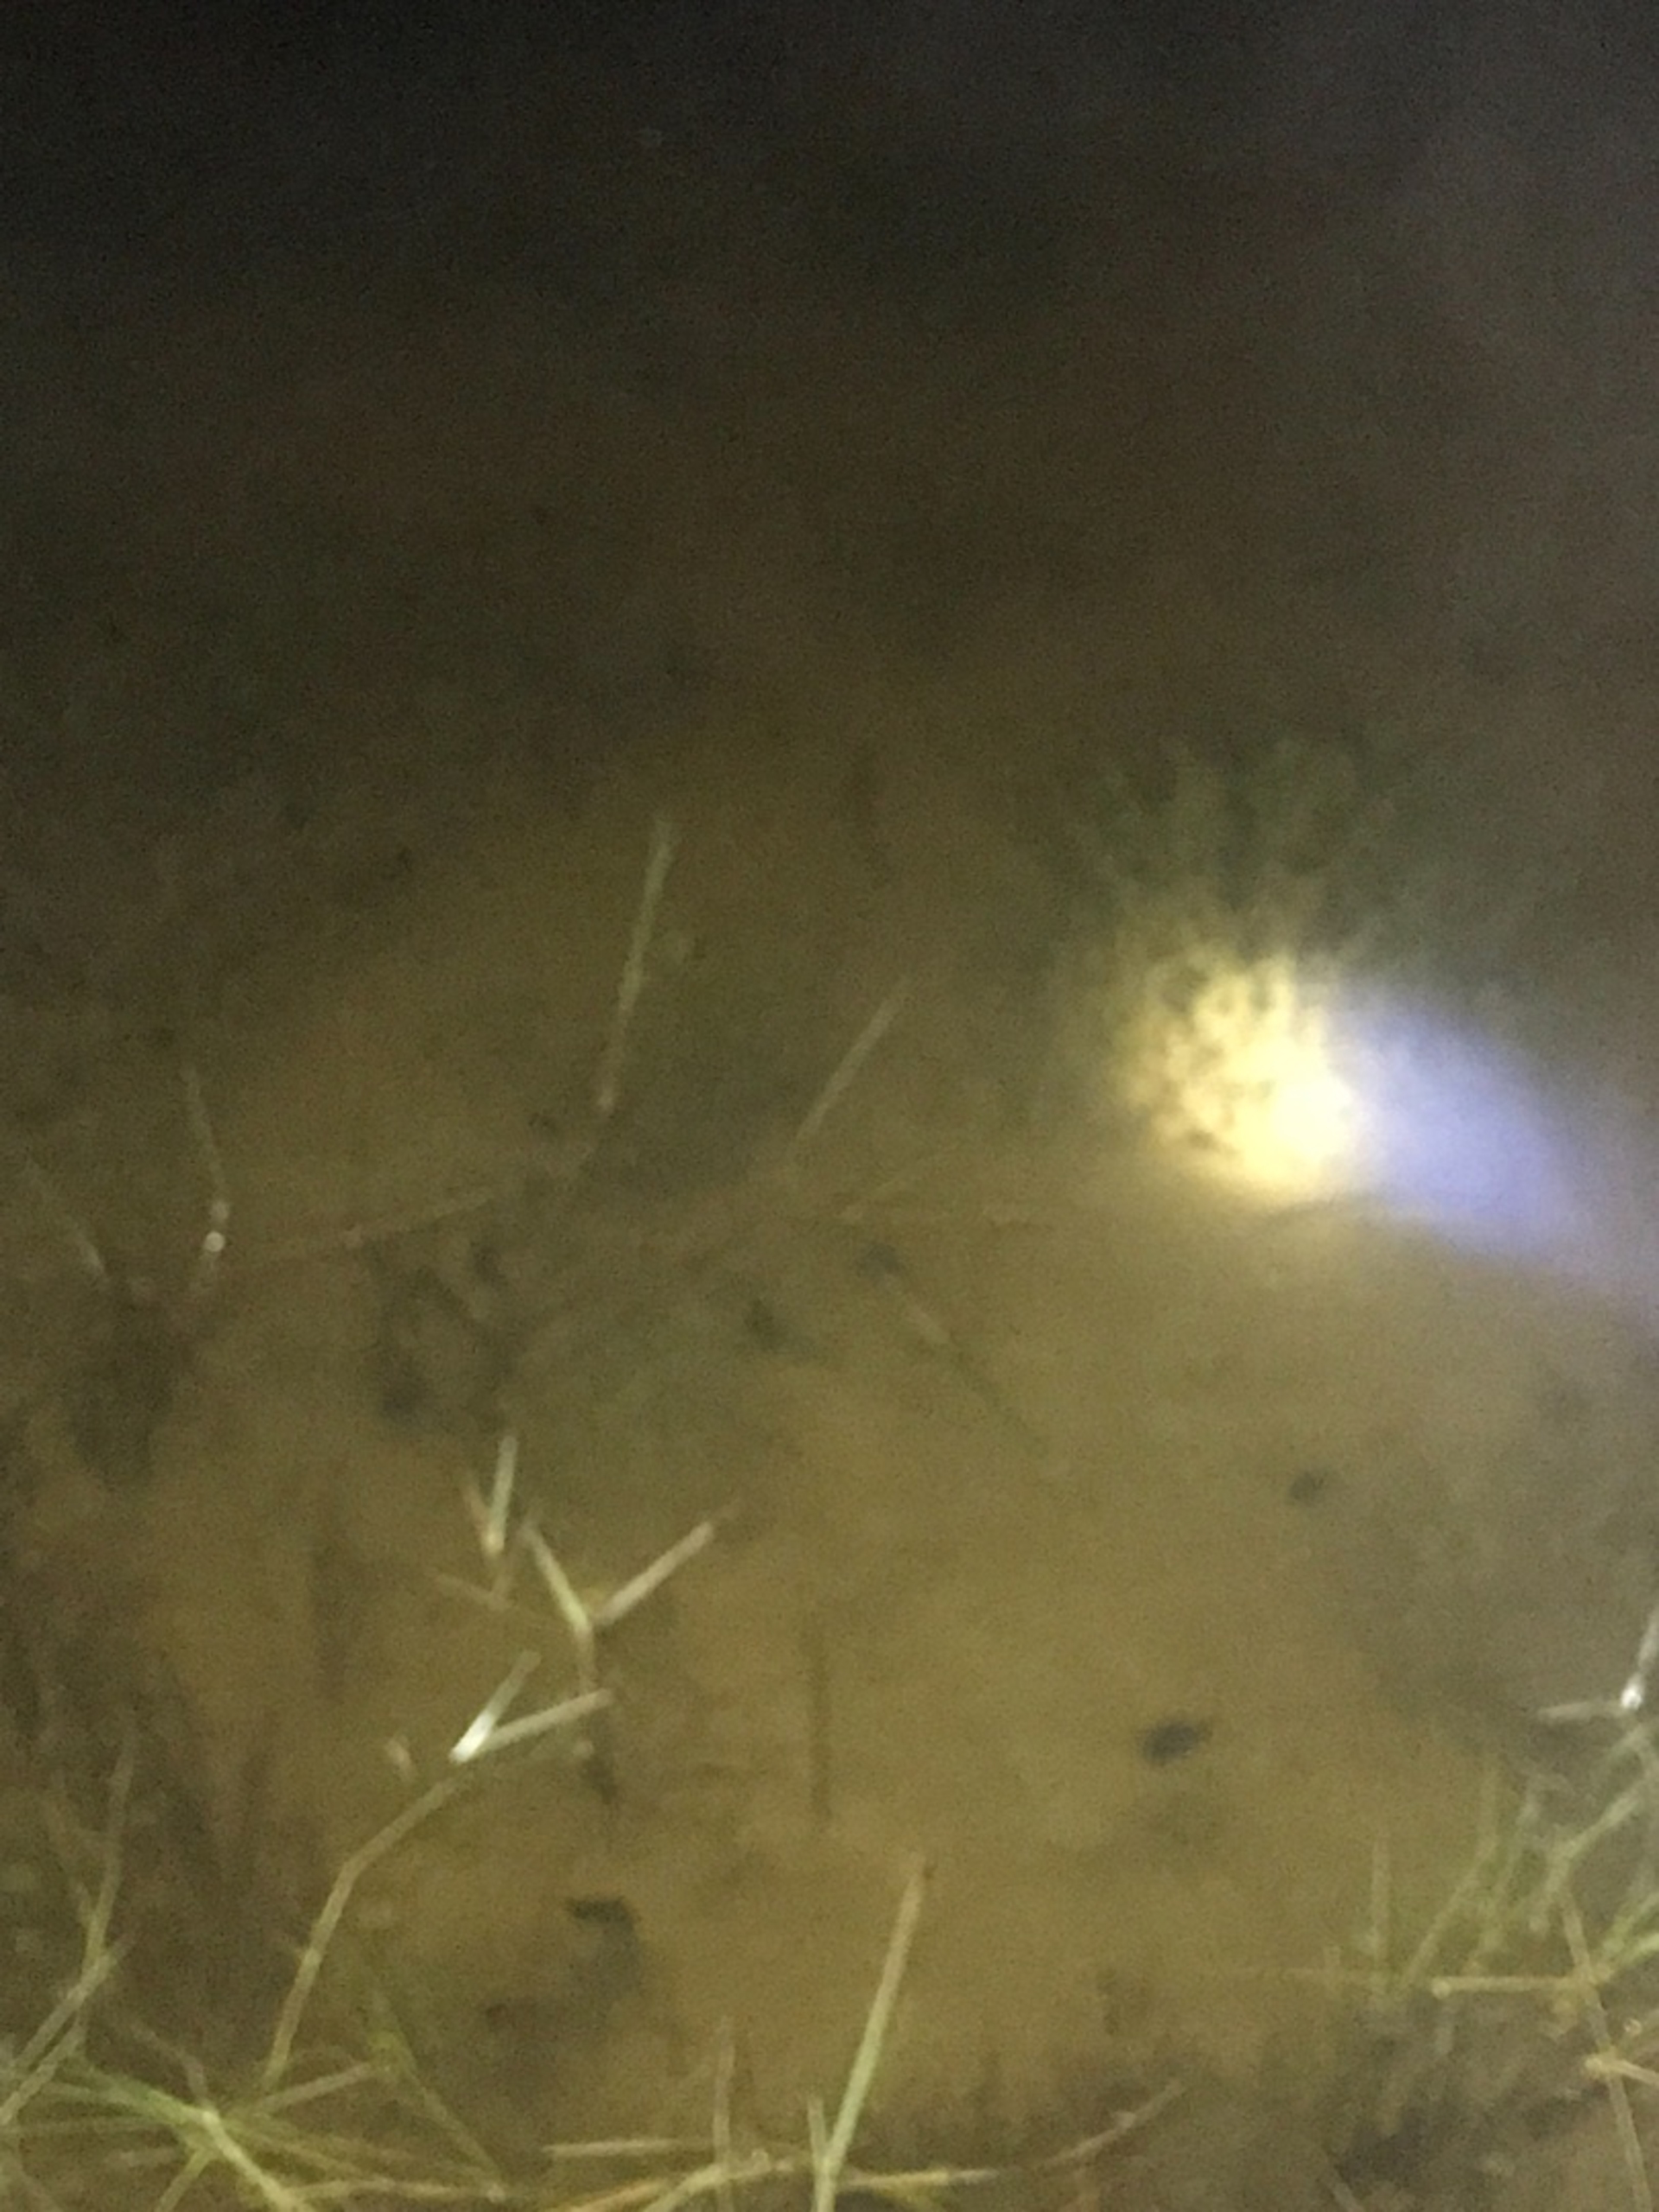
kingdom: Animalia
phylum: Chordata
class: Amphibia
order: Caudata
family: Salamandridae
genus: Triturus
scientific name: Triturus cristatus
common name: Stor vandsalamander
